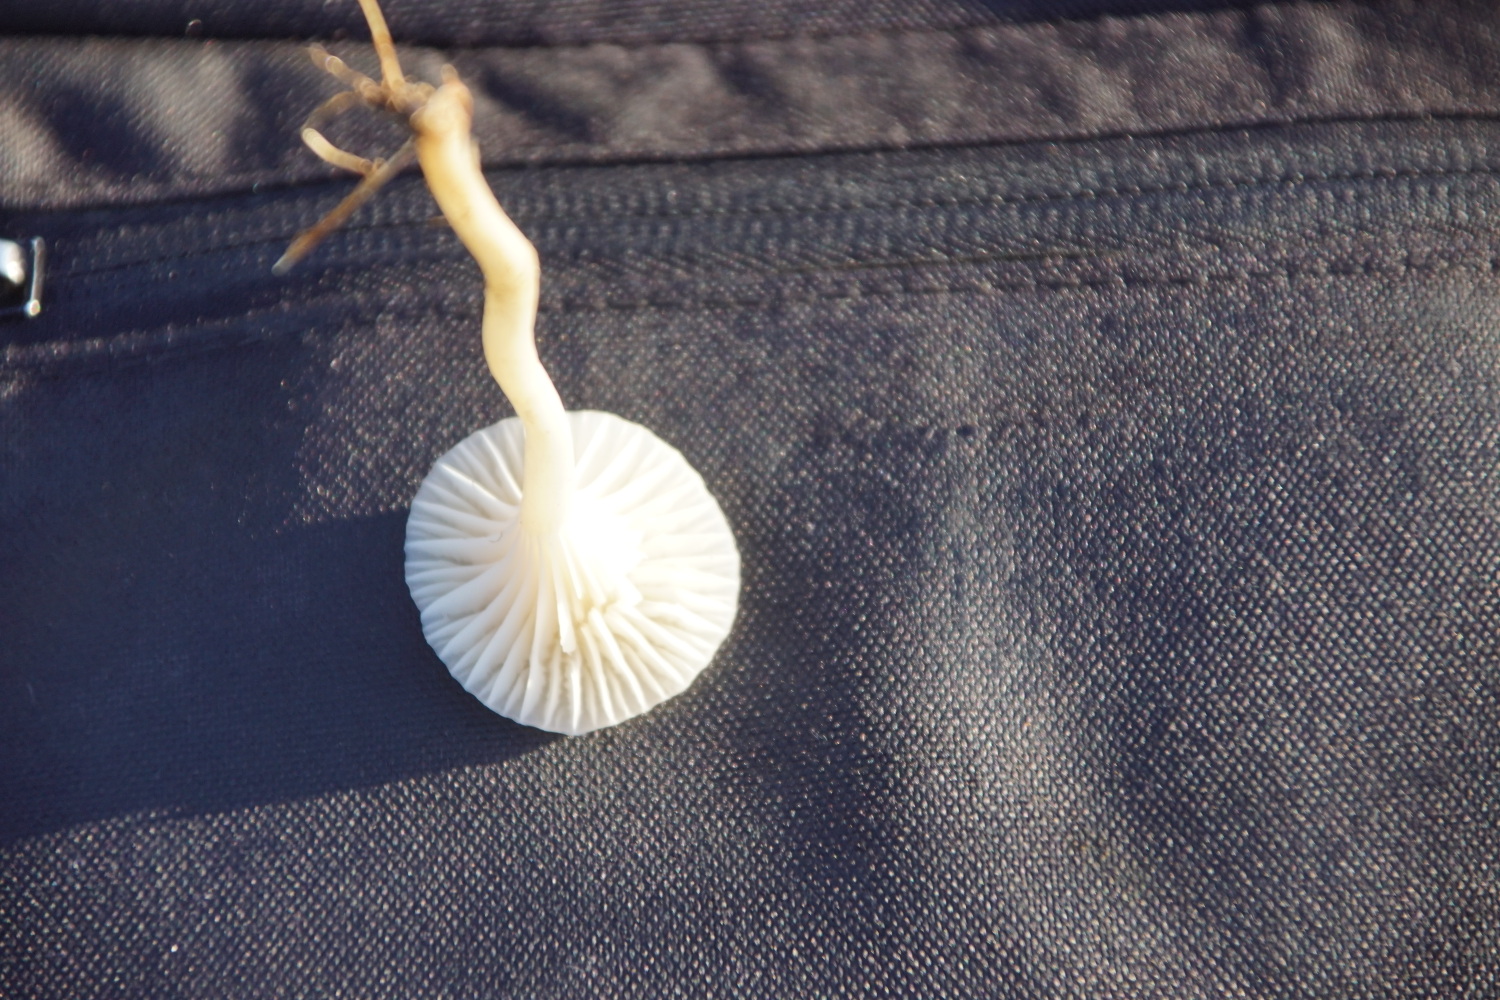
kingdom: Fungi
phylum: Basidiomycota
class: Agaricomycetes
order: Agaricales
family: Hygrophoraceae
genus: Cuphophyllus
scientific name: Cuphophyllus virgineus
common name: snehvid vokshat
